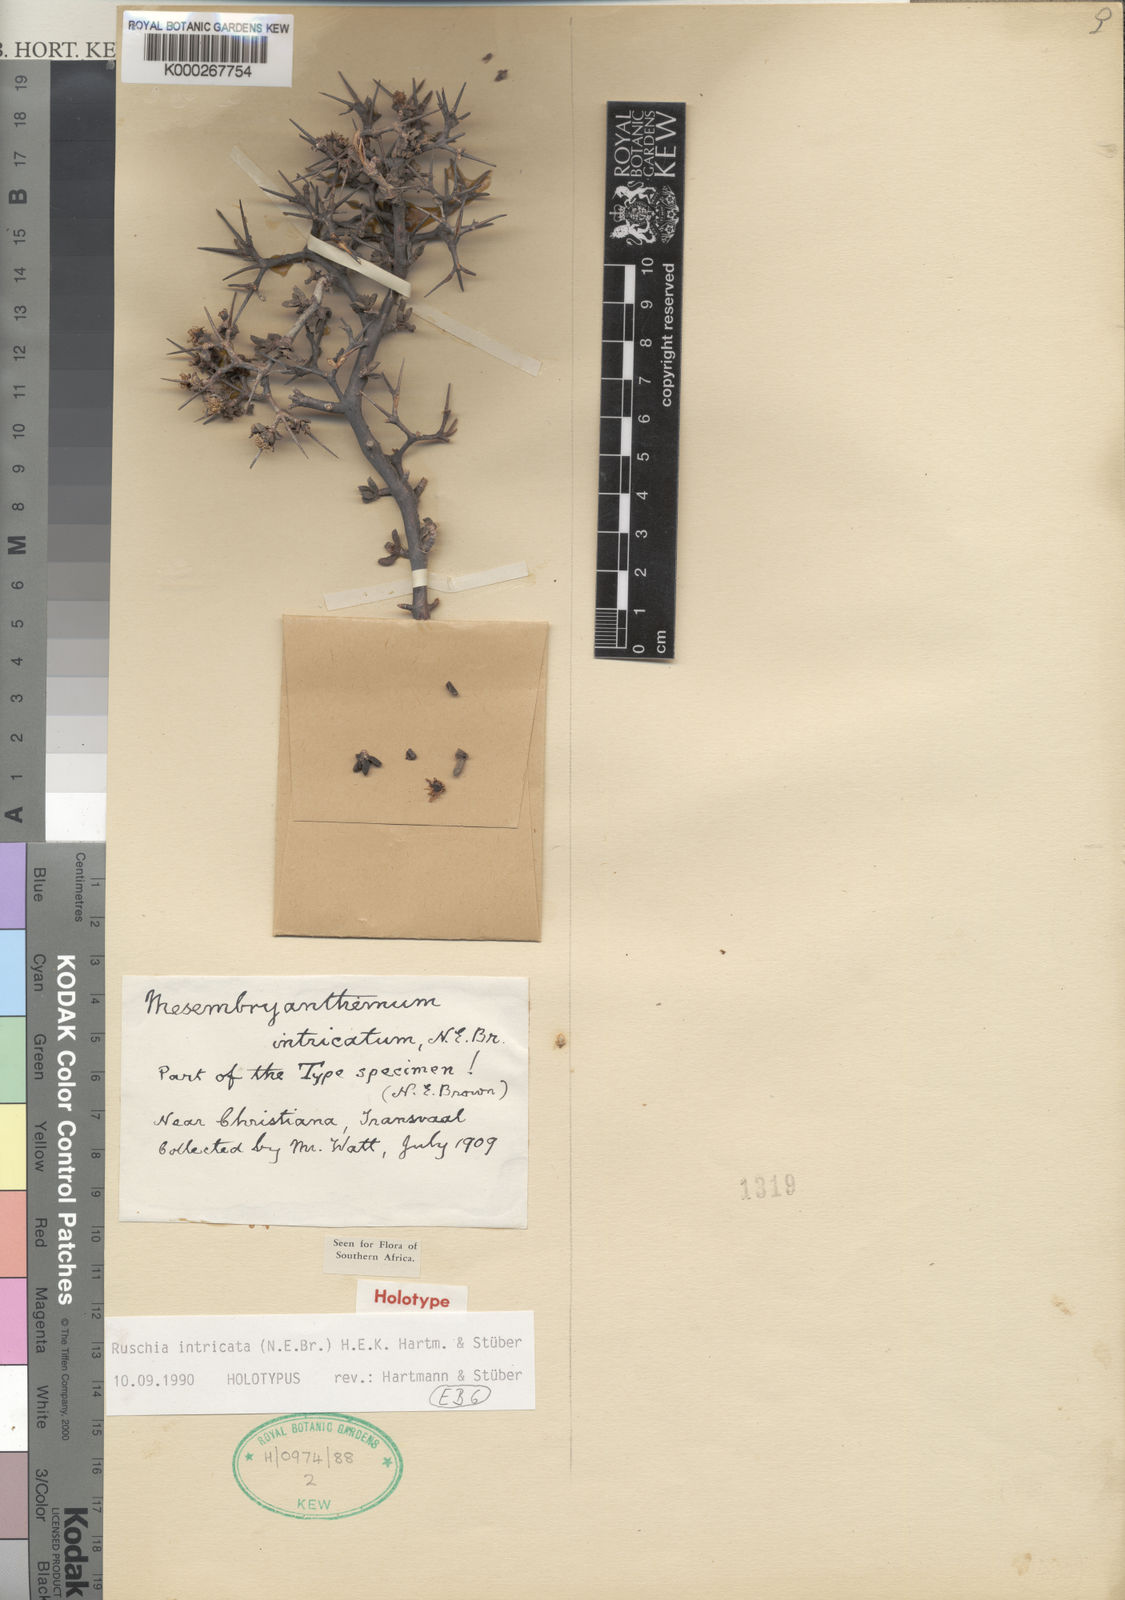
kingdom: Plantae
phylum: Tracheophyta
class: Magnoliopsida
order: Caryophyllales
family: Aizoaceae
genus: Ruschia
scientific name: Ruschia
